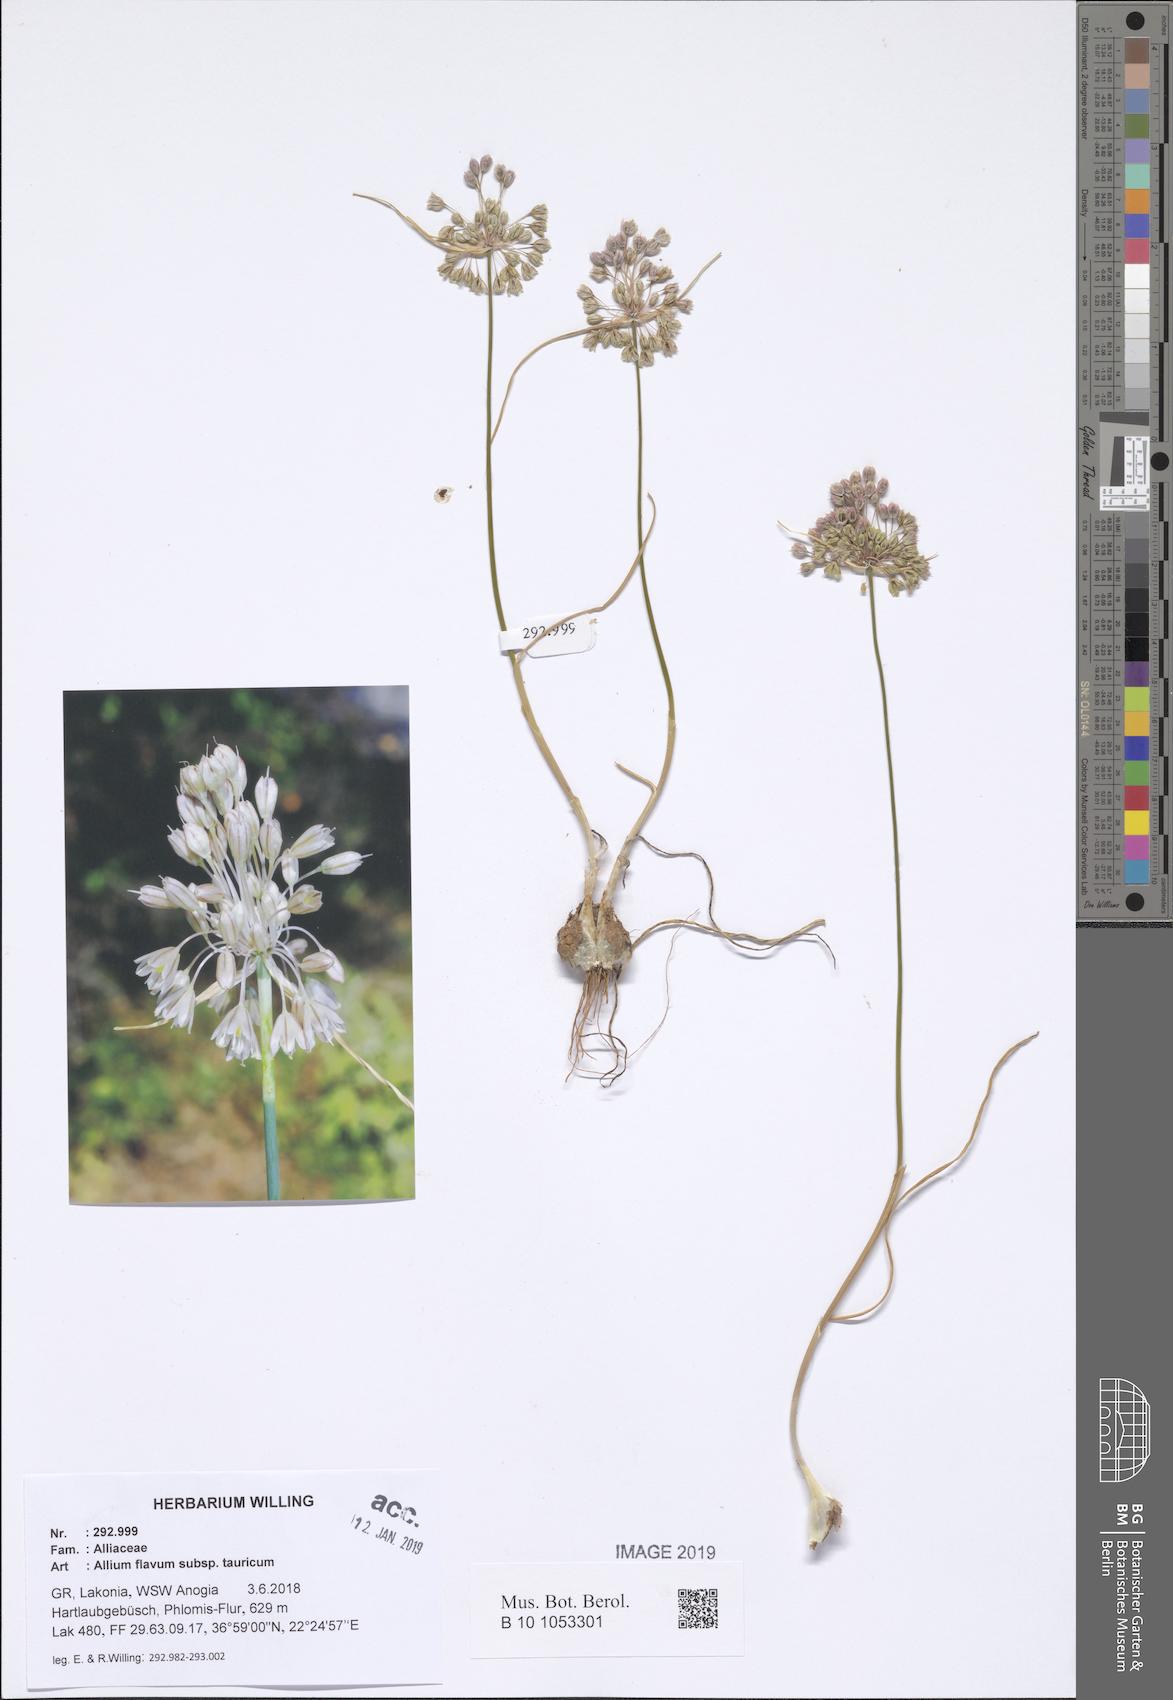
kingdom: Plantae
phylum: Tracheophyta
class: Liliopsida
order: Asparagales
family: Amaryllidaceae
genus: Allium
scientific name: Allium flavum
